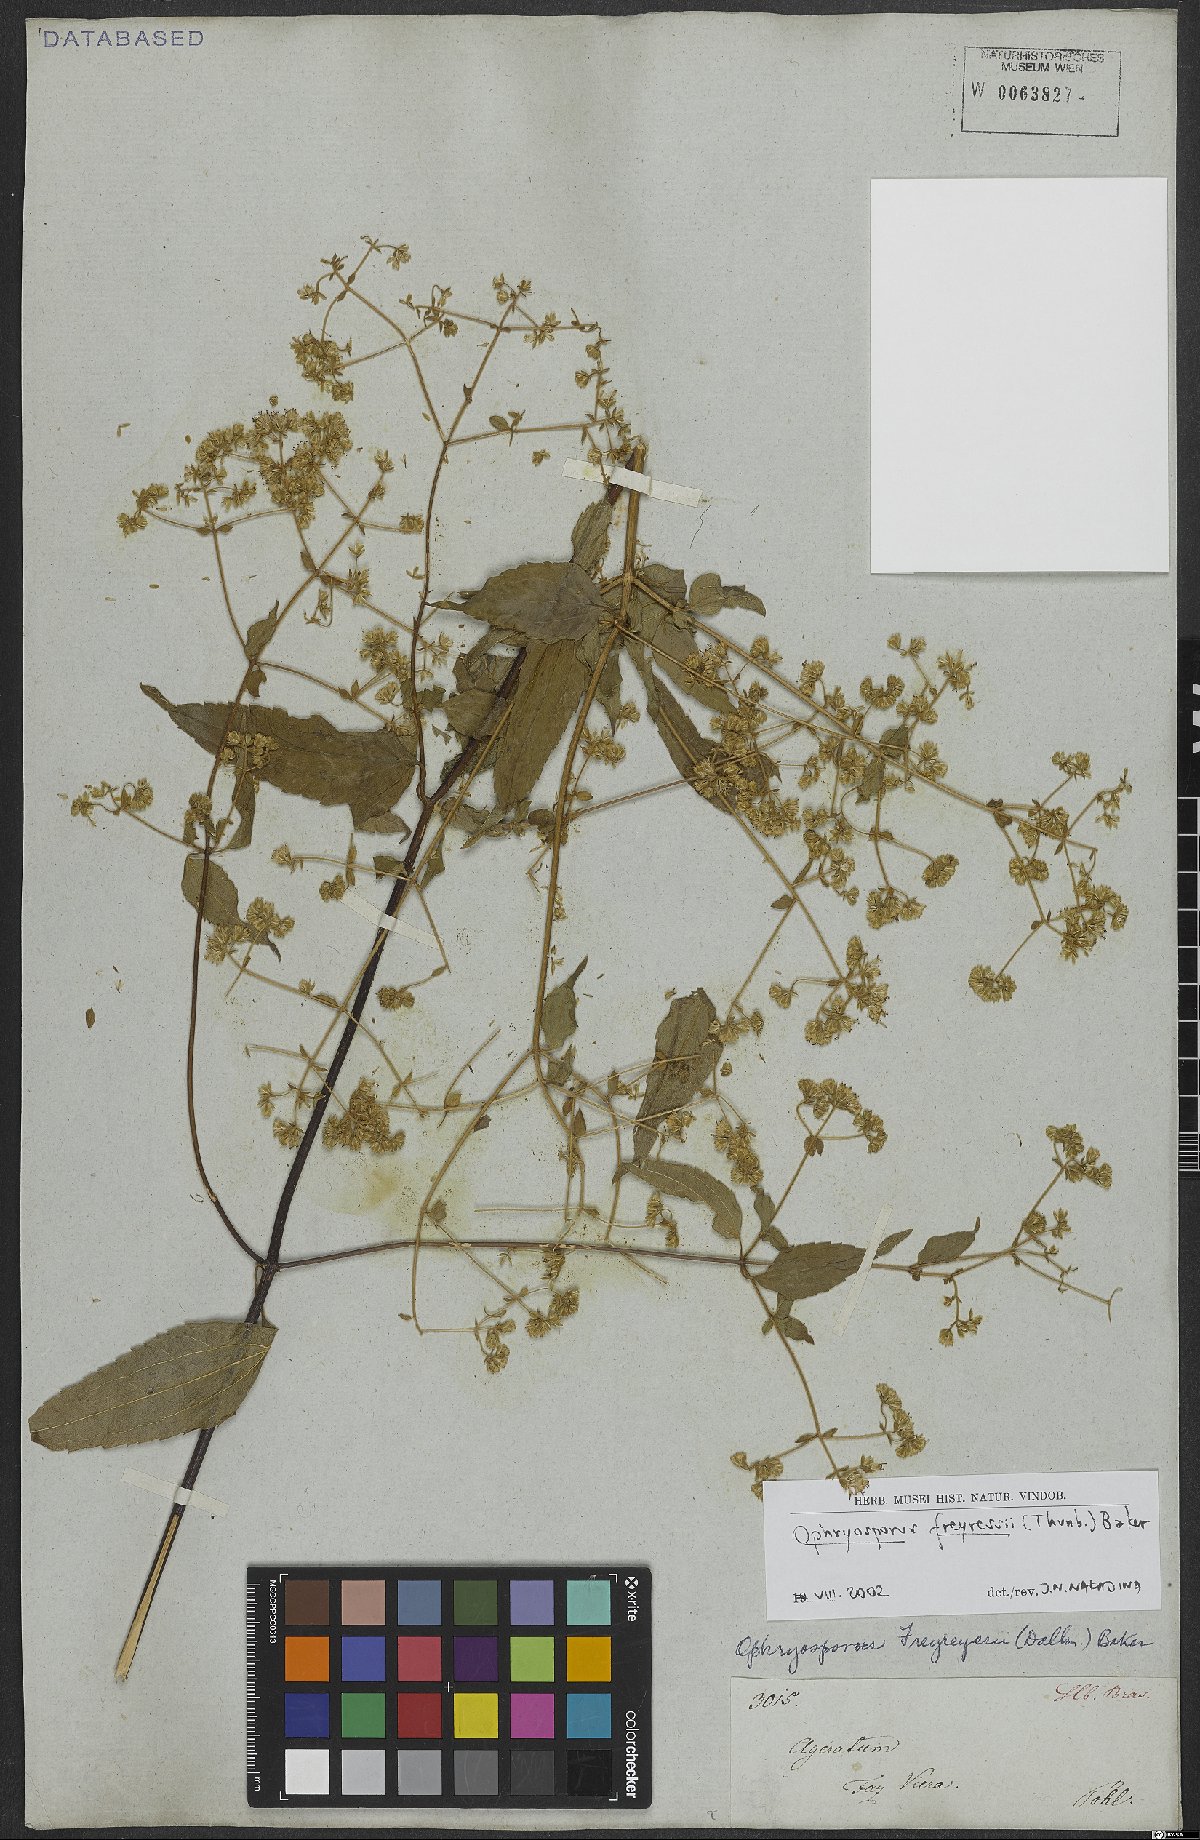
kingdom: Plantae
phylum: Tracheophyta
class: Magnoliopsida
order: Asterales
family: Asteraceae
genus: Ophryosporus
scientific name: Ophryosporus freyreysi
